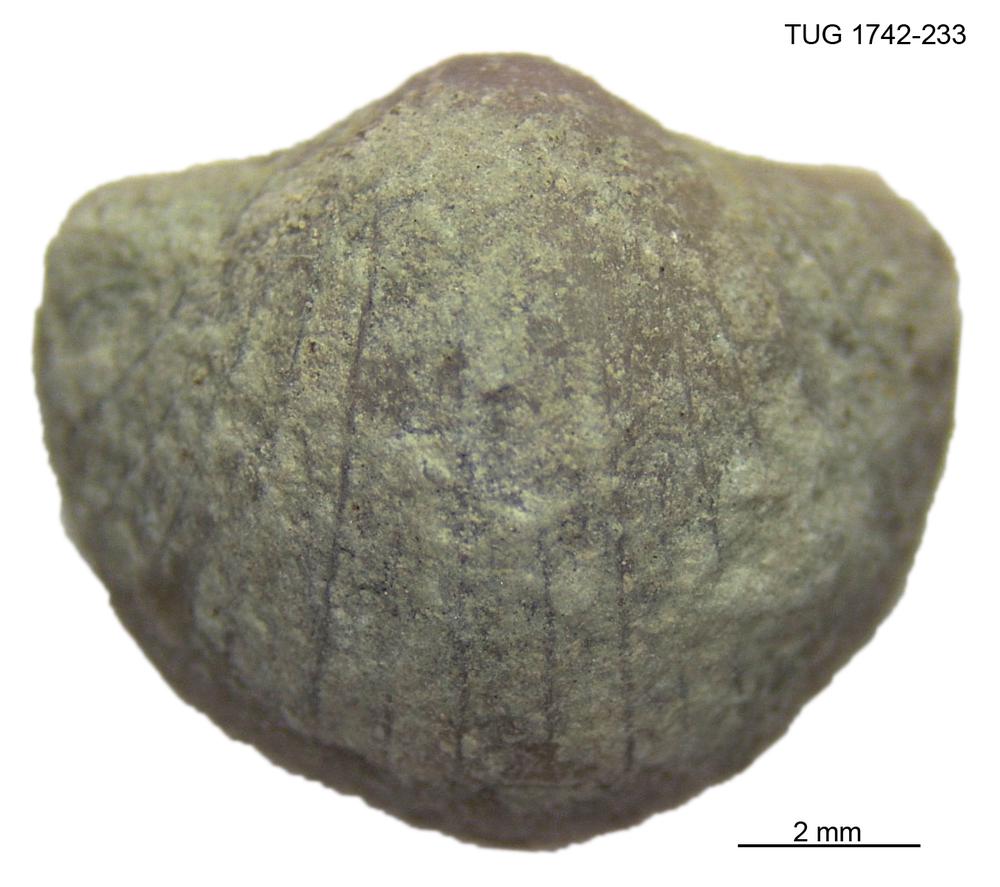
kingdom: Animalia
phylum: Brachiopoda
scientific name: Brachiopoda
